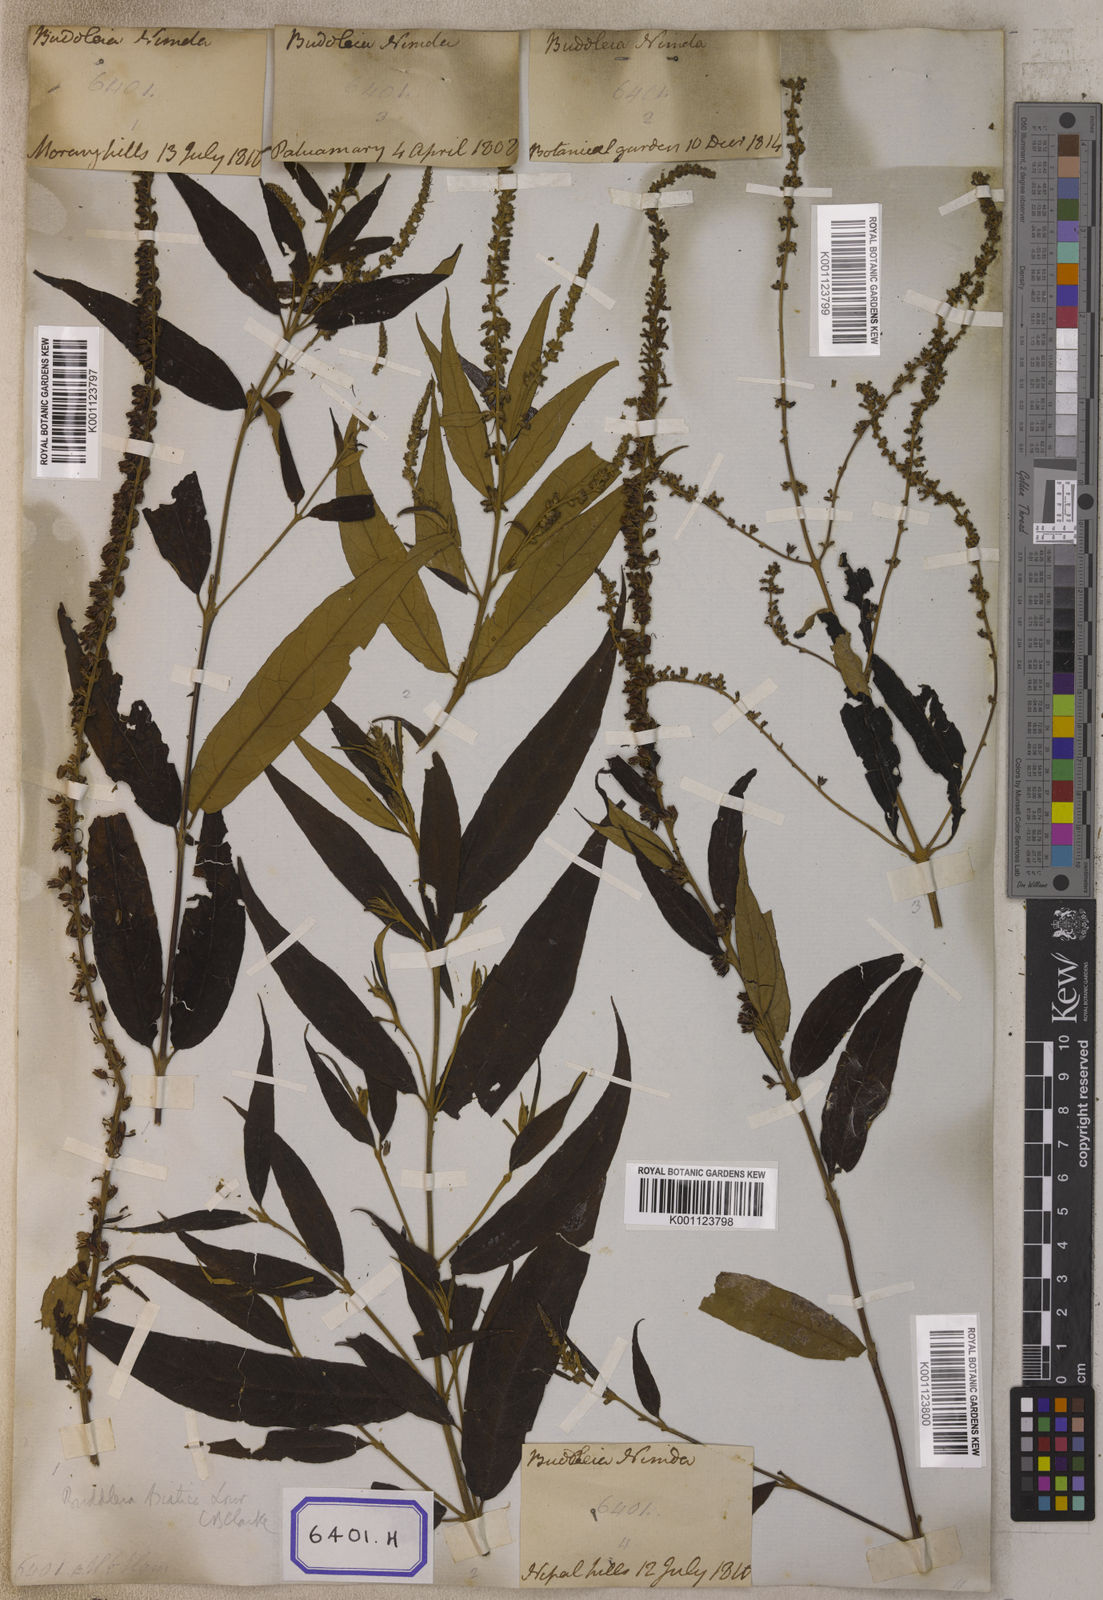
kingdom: Plantae
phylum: Tracheophyta
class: Magnoliopsida
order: Lamiales
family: Scrophulariaceae
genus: Buddleja
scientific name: Buddleja
